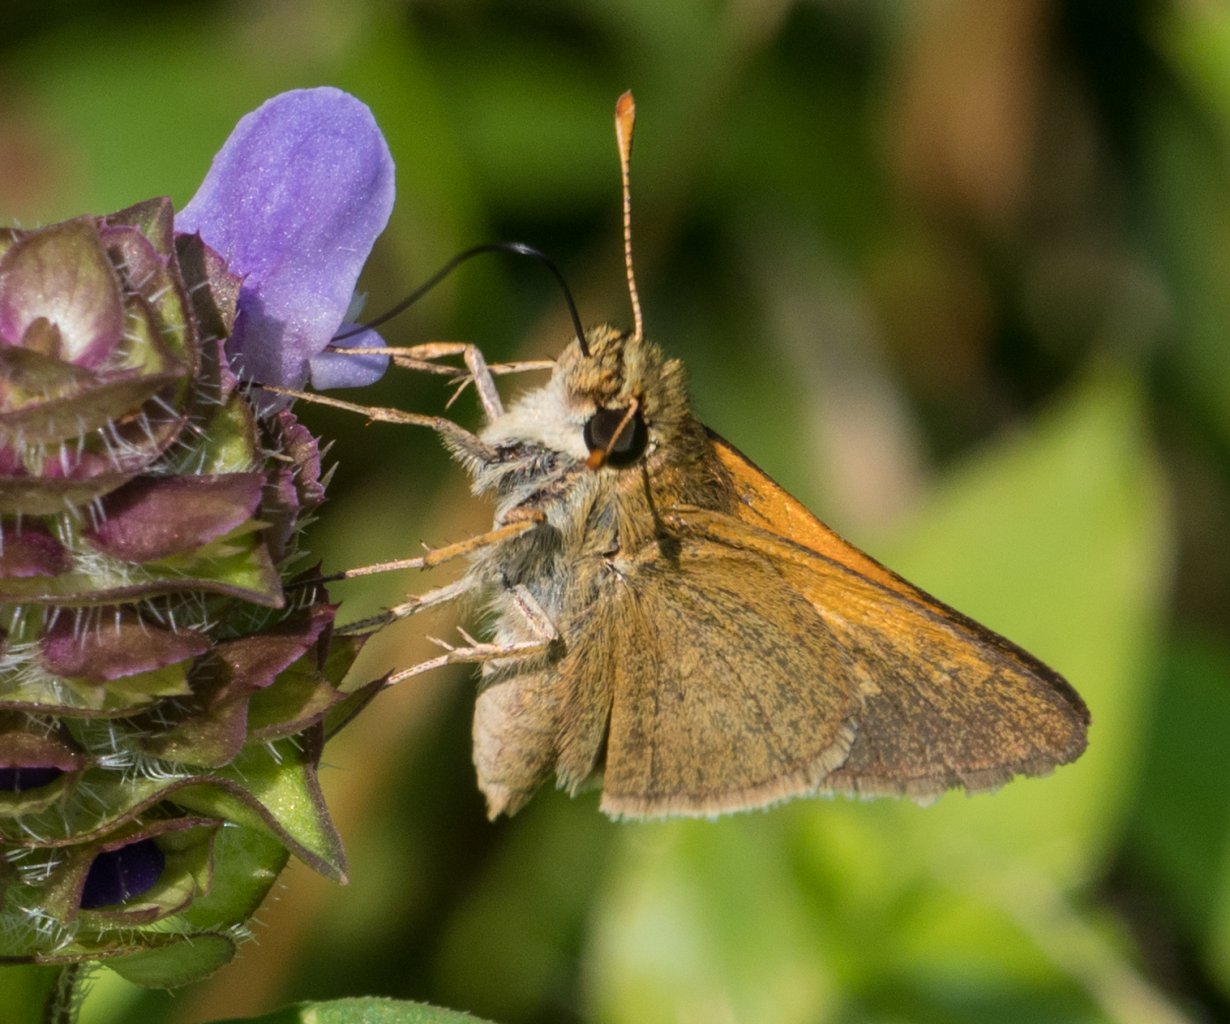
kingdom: Animalia
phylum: Arthropoda
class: Insecta
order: Lepidoptera
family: Hesperiidae
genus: Polites
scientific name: Polites themistocles
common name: Tawny-edged Skipper
